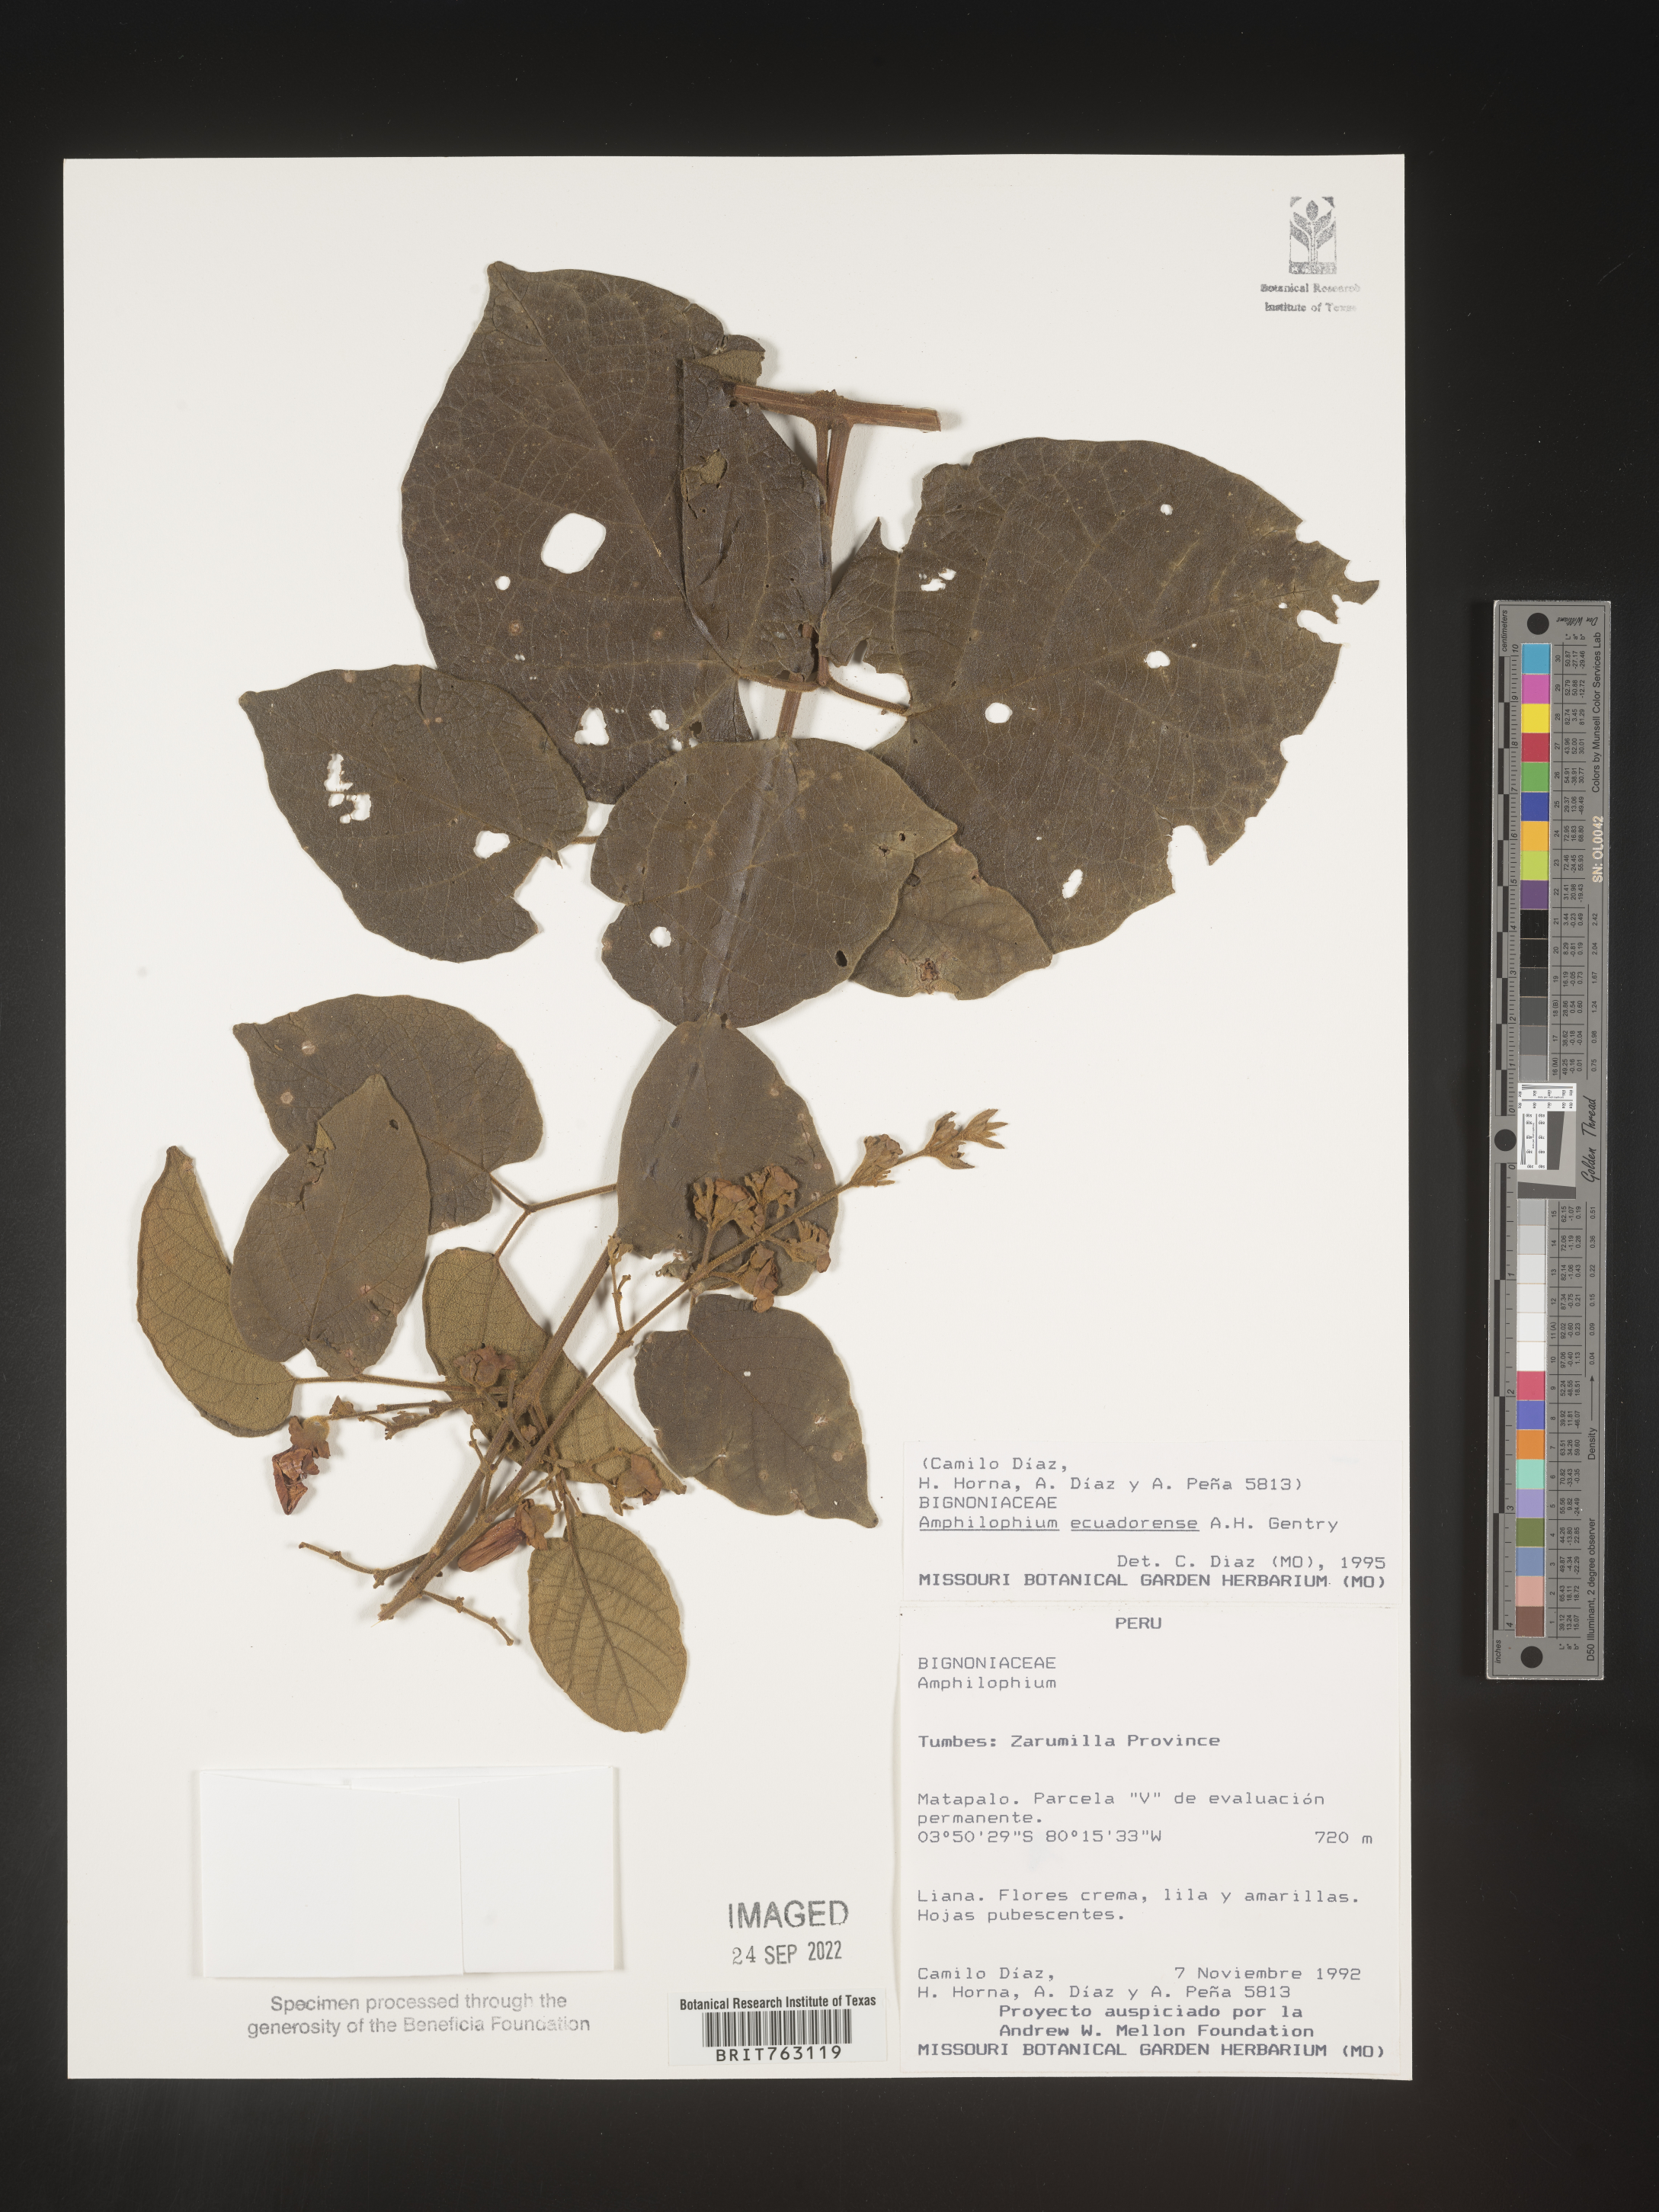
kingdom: Plantae
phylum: Tracheophyta
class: Magnoliopsida
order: Lamiales
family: Bignoniaceae
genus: Amphilophium
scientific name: Amphilophium
